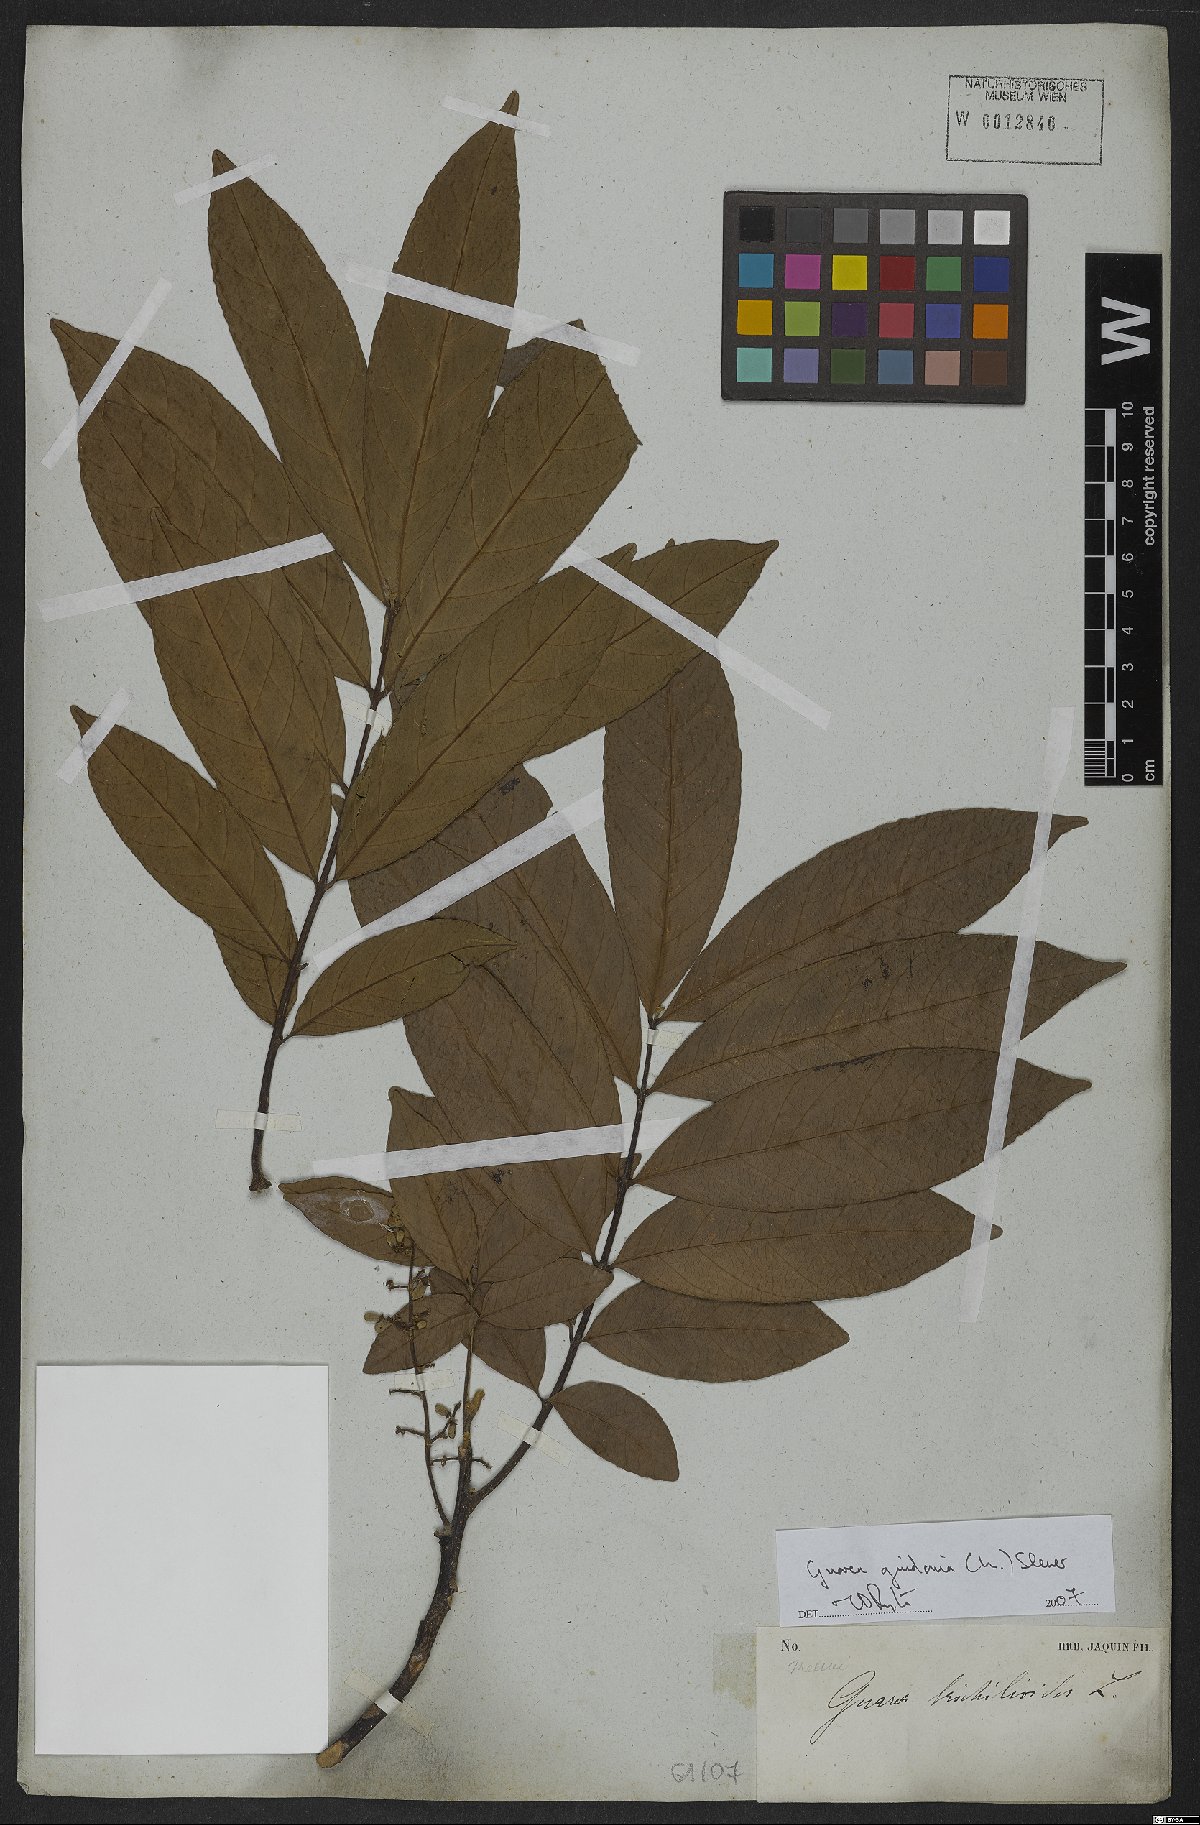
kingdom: Plantae
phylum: Tracheophyta
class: Magnoliopsida
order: Sapindales
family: Meliaceae
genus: Guarea
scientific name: Guarea guidonia
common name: American muskwood
